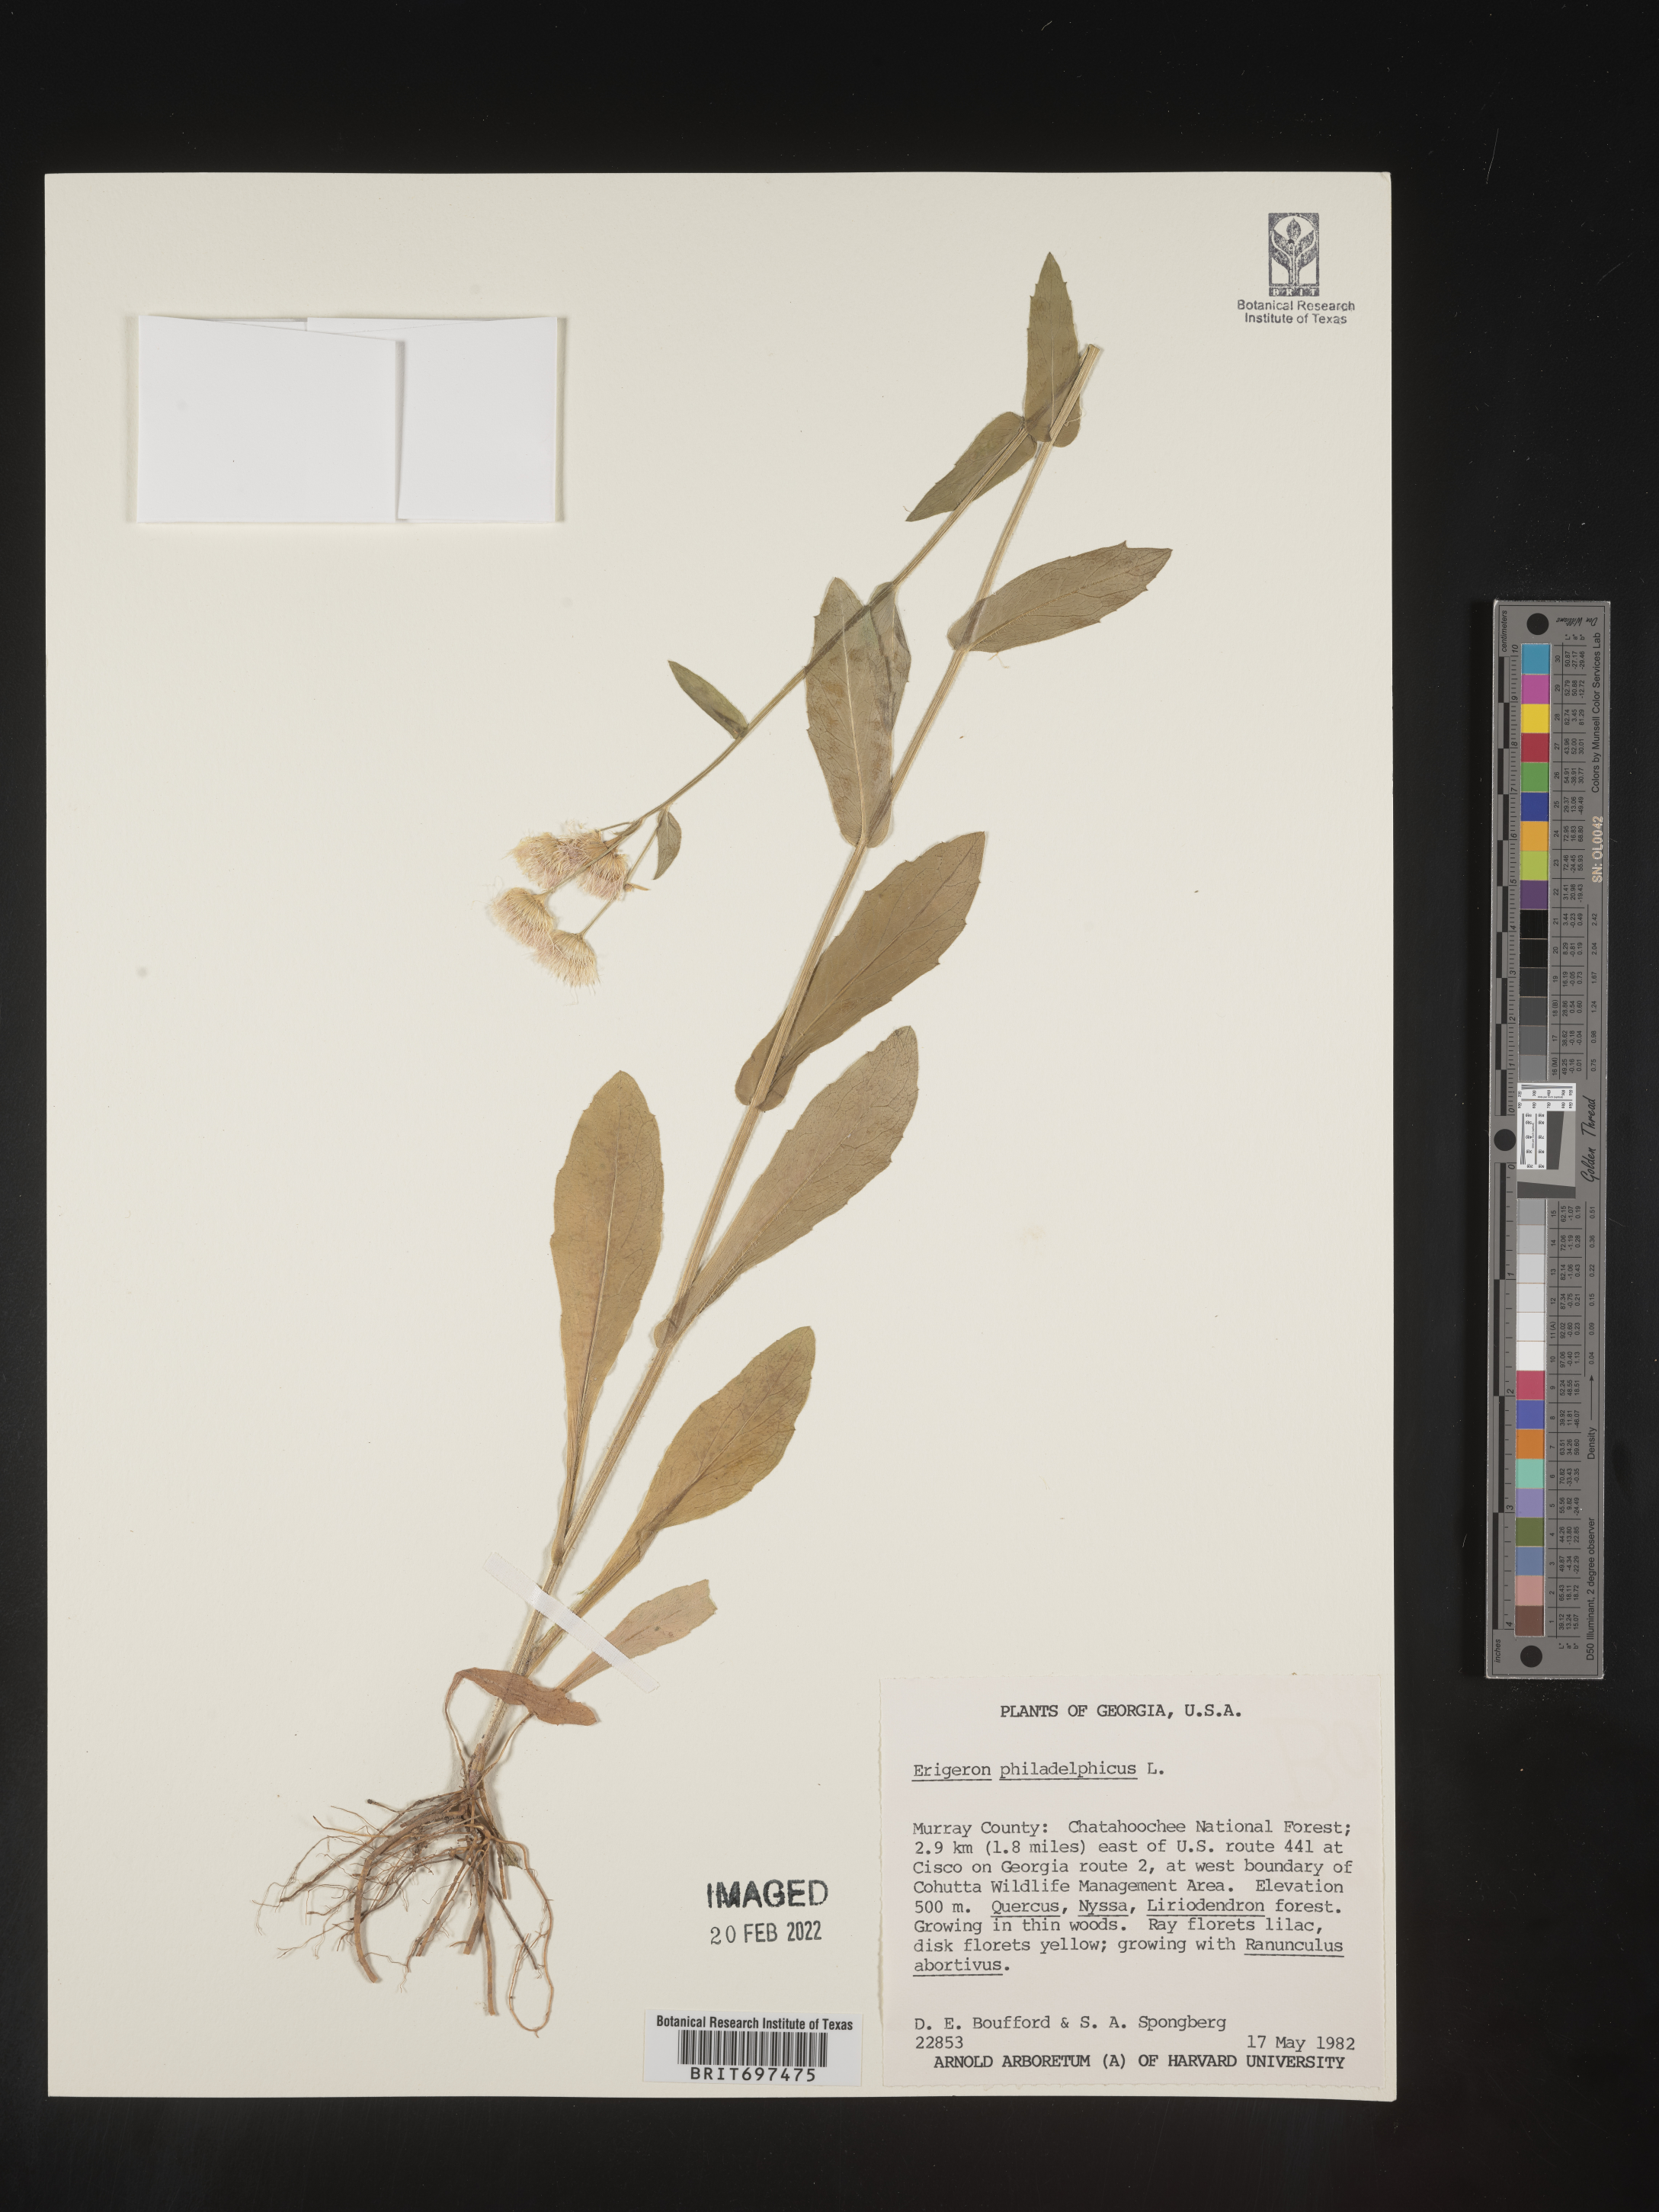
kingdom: Plantae
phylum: Tracheophyta
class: Magnoliopsida
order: Asterales
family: Asteraceae
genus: Erigeron
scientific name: Erigeron philadelphicus
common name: Robin's-plantain
